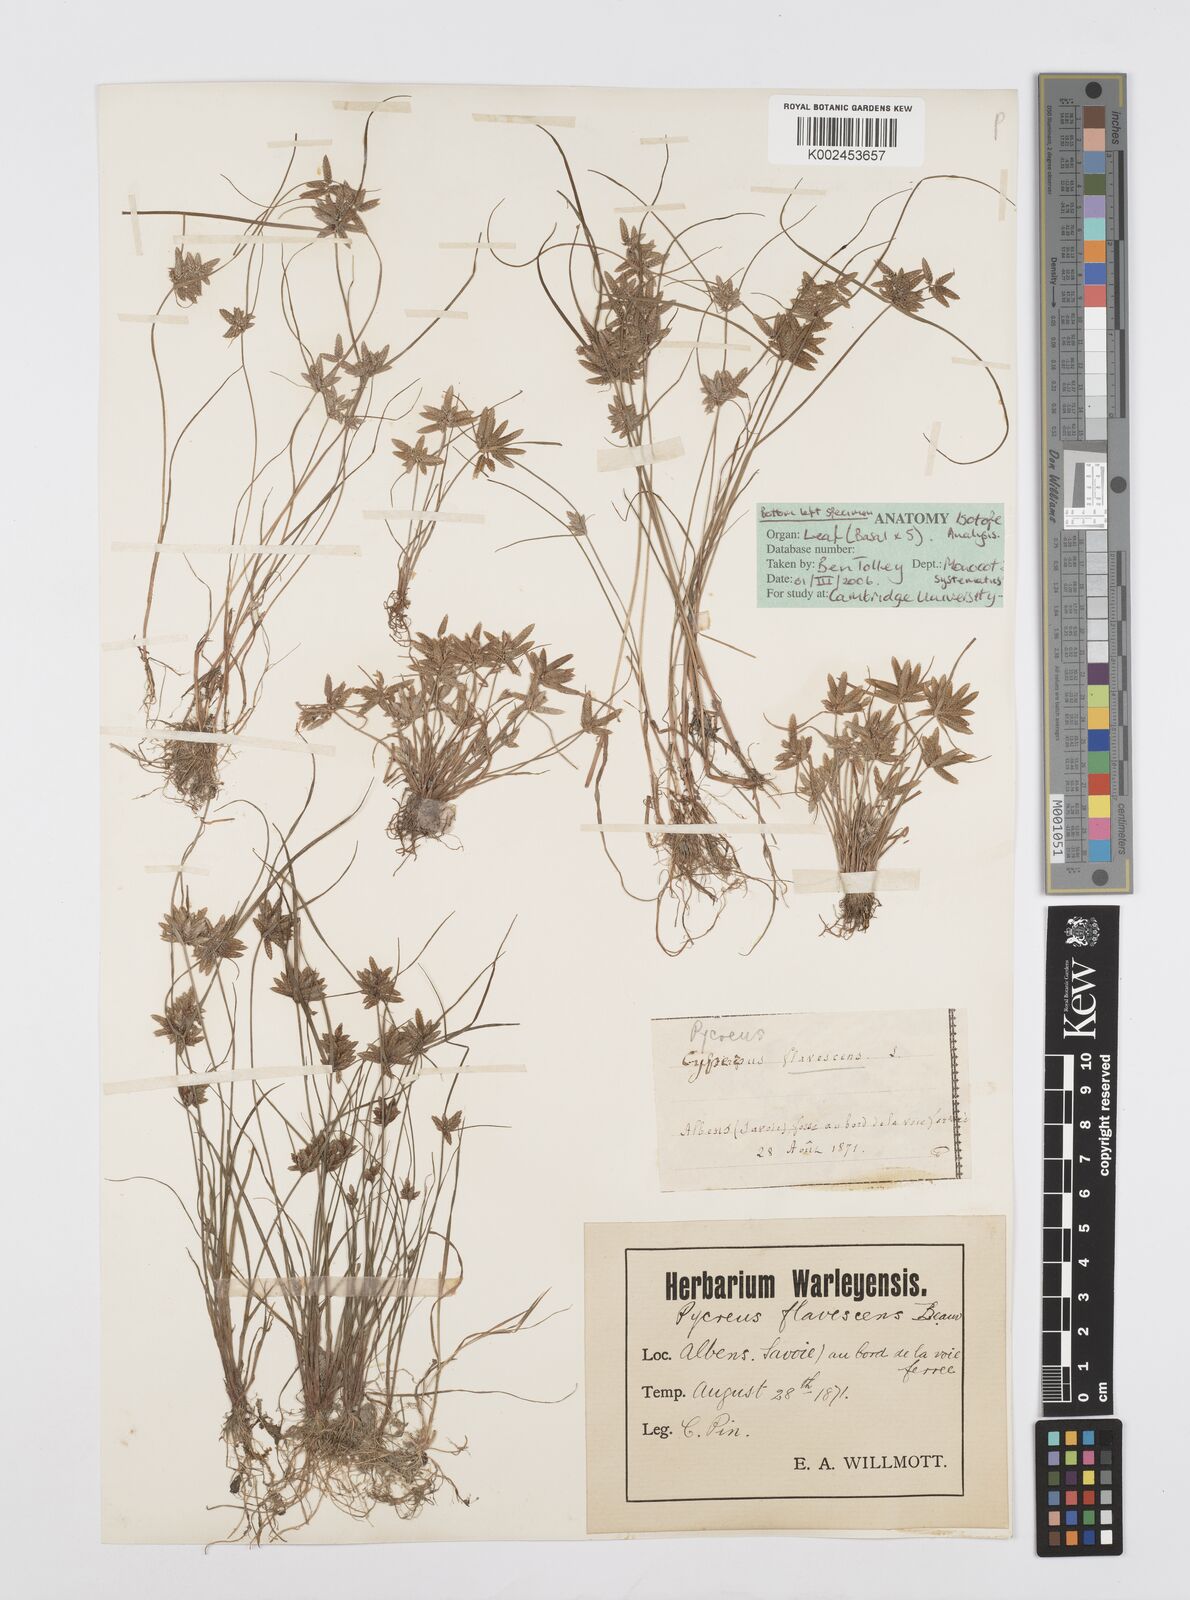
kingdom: Plantae
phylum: Tracheophyta
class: Liliopsida
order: Poales
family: Cyperaceae
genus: Cyperus
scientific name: Cyperus flavescens
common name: Yellow galingale
